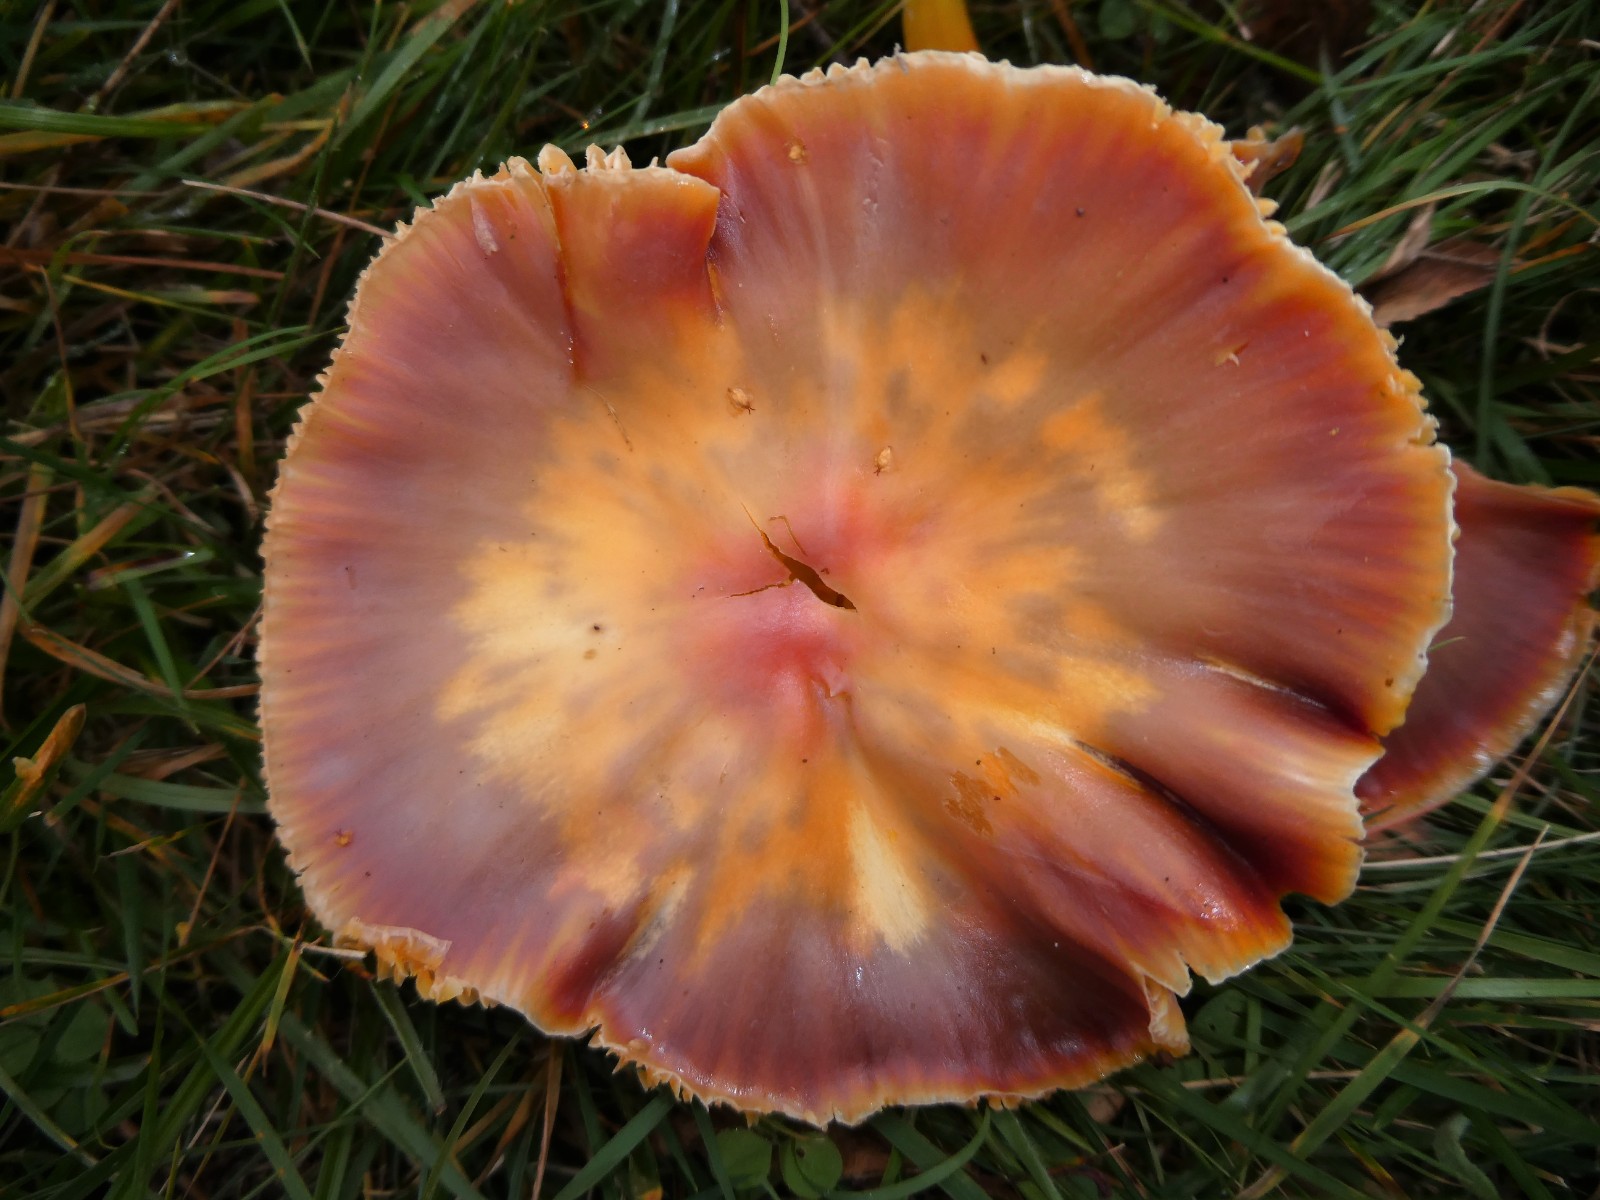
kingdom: Fungi
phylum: Basidiomycota
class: Agaricomycetes
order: Agaricales
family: Hygrophoraceae
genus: Hygrocybe
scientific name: Hygrocybe punicea
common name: skarlagen-vokshat
